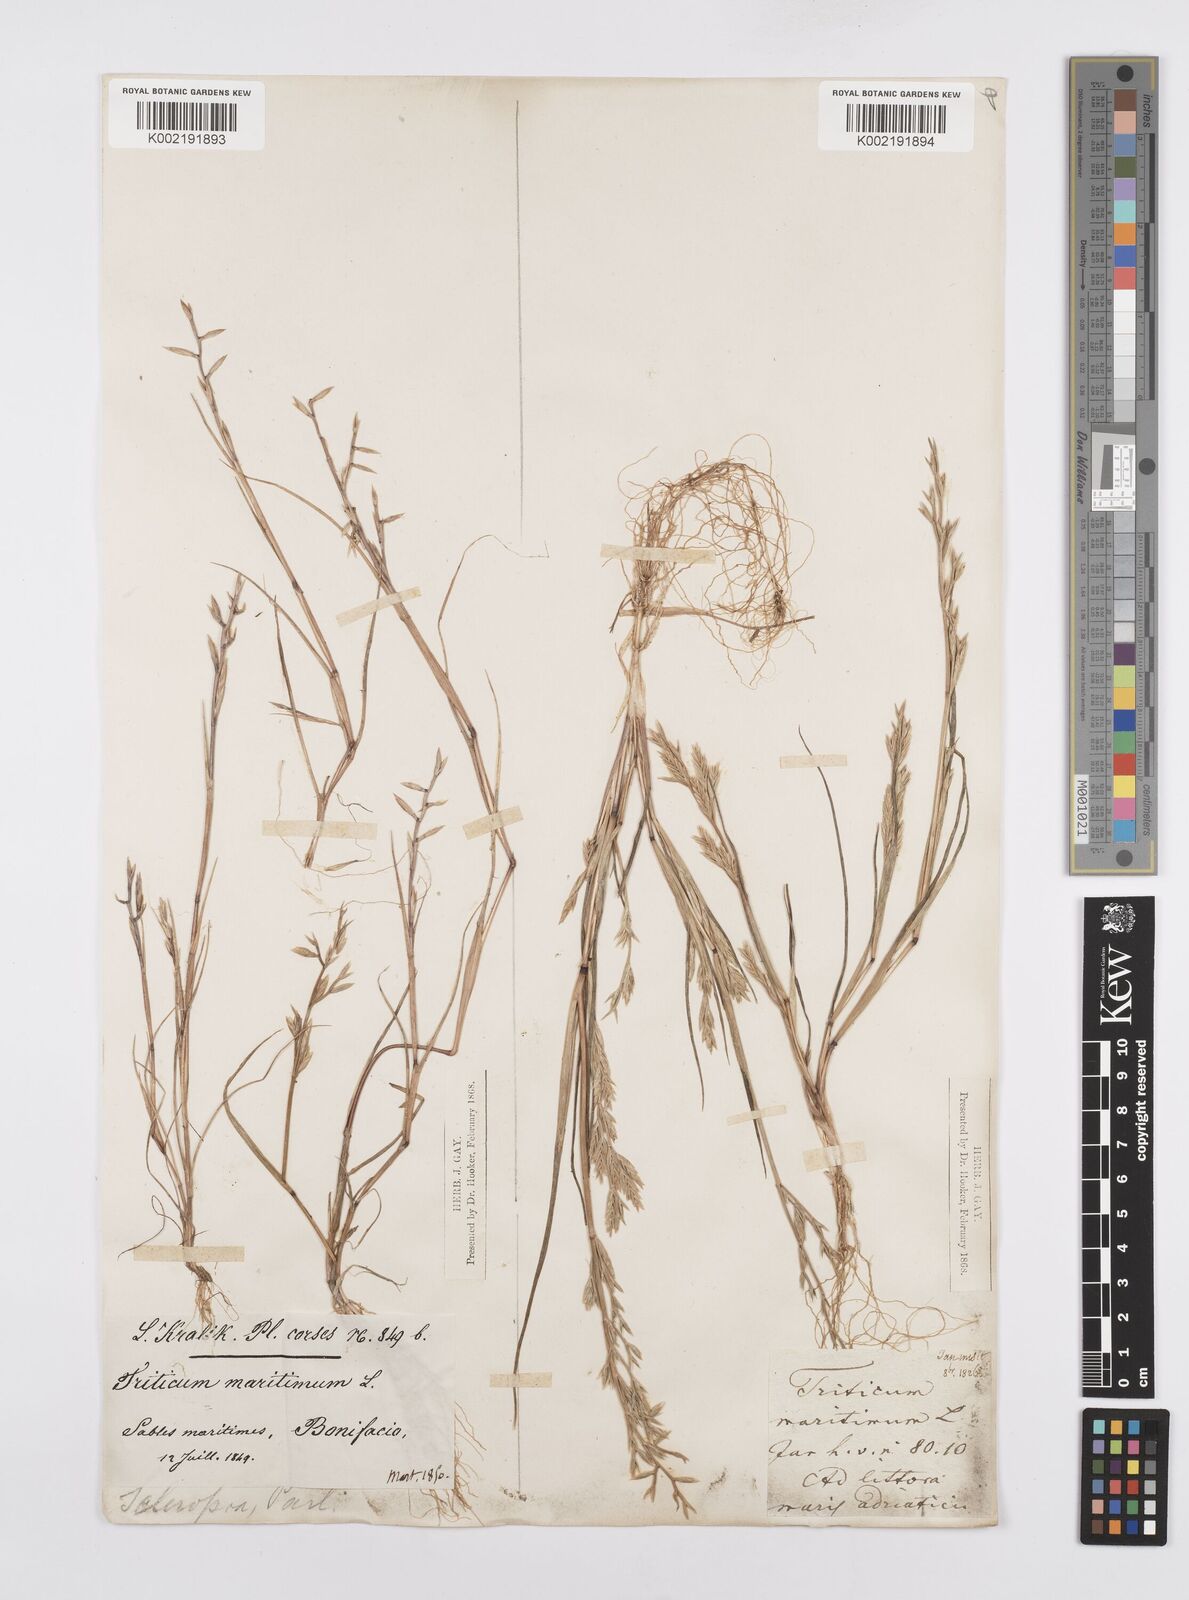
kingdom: Plantae
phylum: Tracheophyta
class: Liliopsida
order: Poales
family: Poaceae
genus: Cutandia
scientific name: Cutandia maritima
